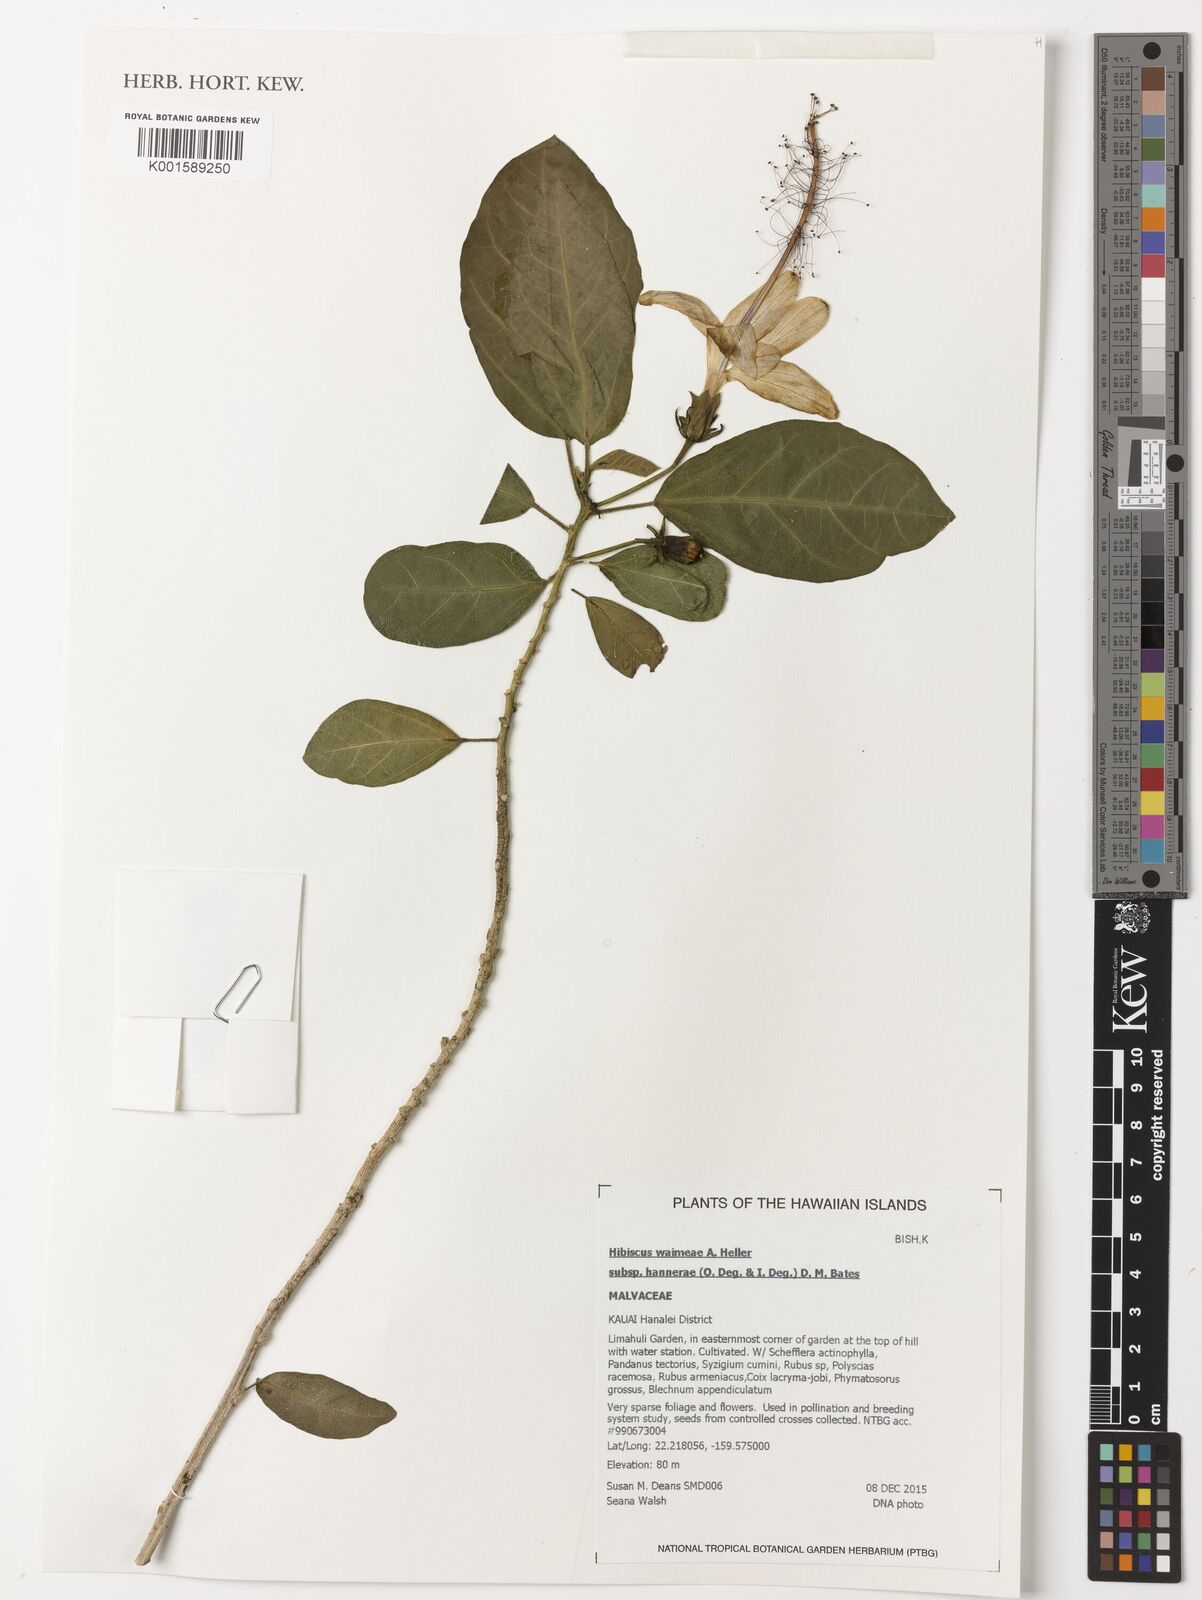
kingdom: Plantae
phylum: Tracheophyta
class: Magnoliopsida
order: Malvales
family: Malvaceae
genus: Hibiscus
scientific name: Hibiscus waimeae
